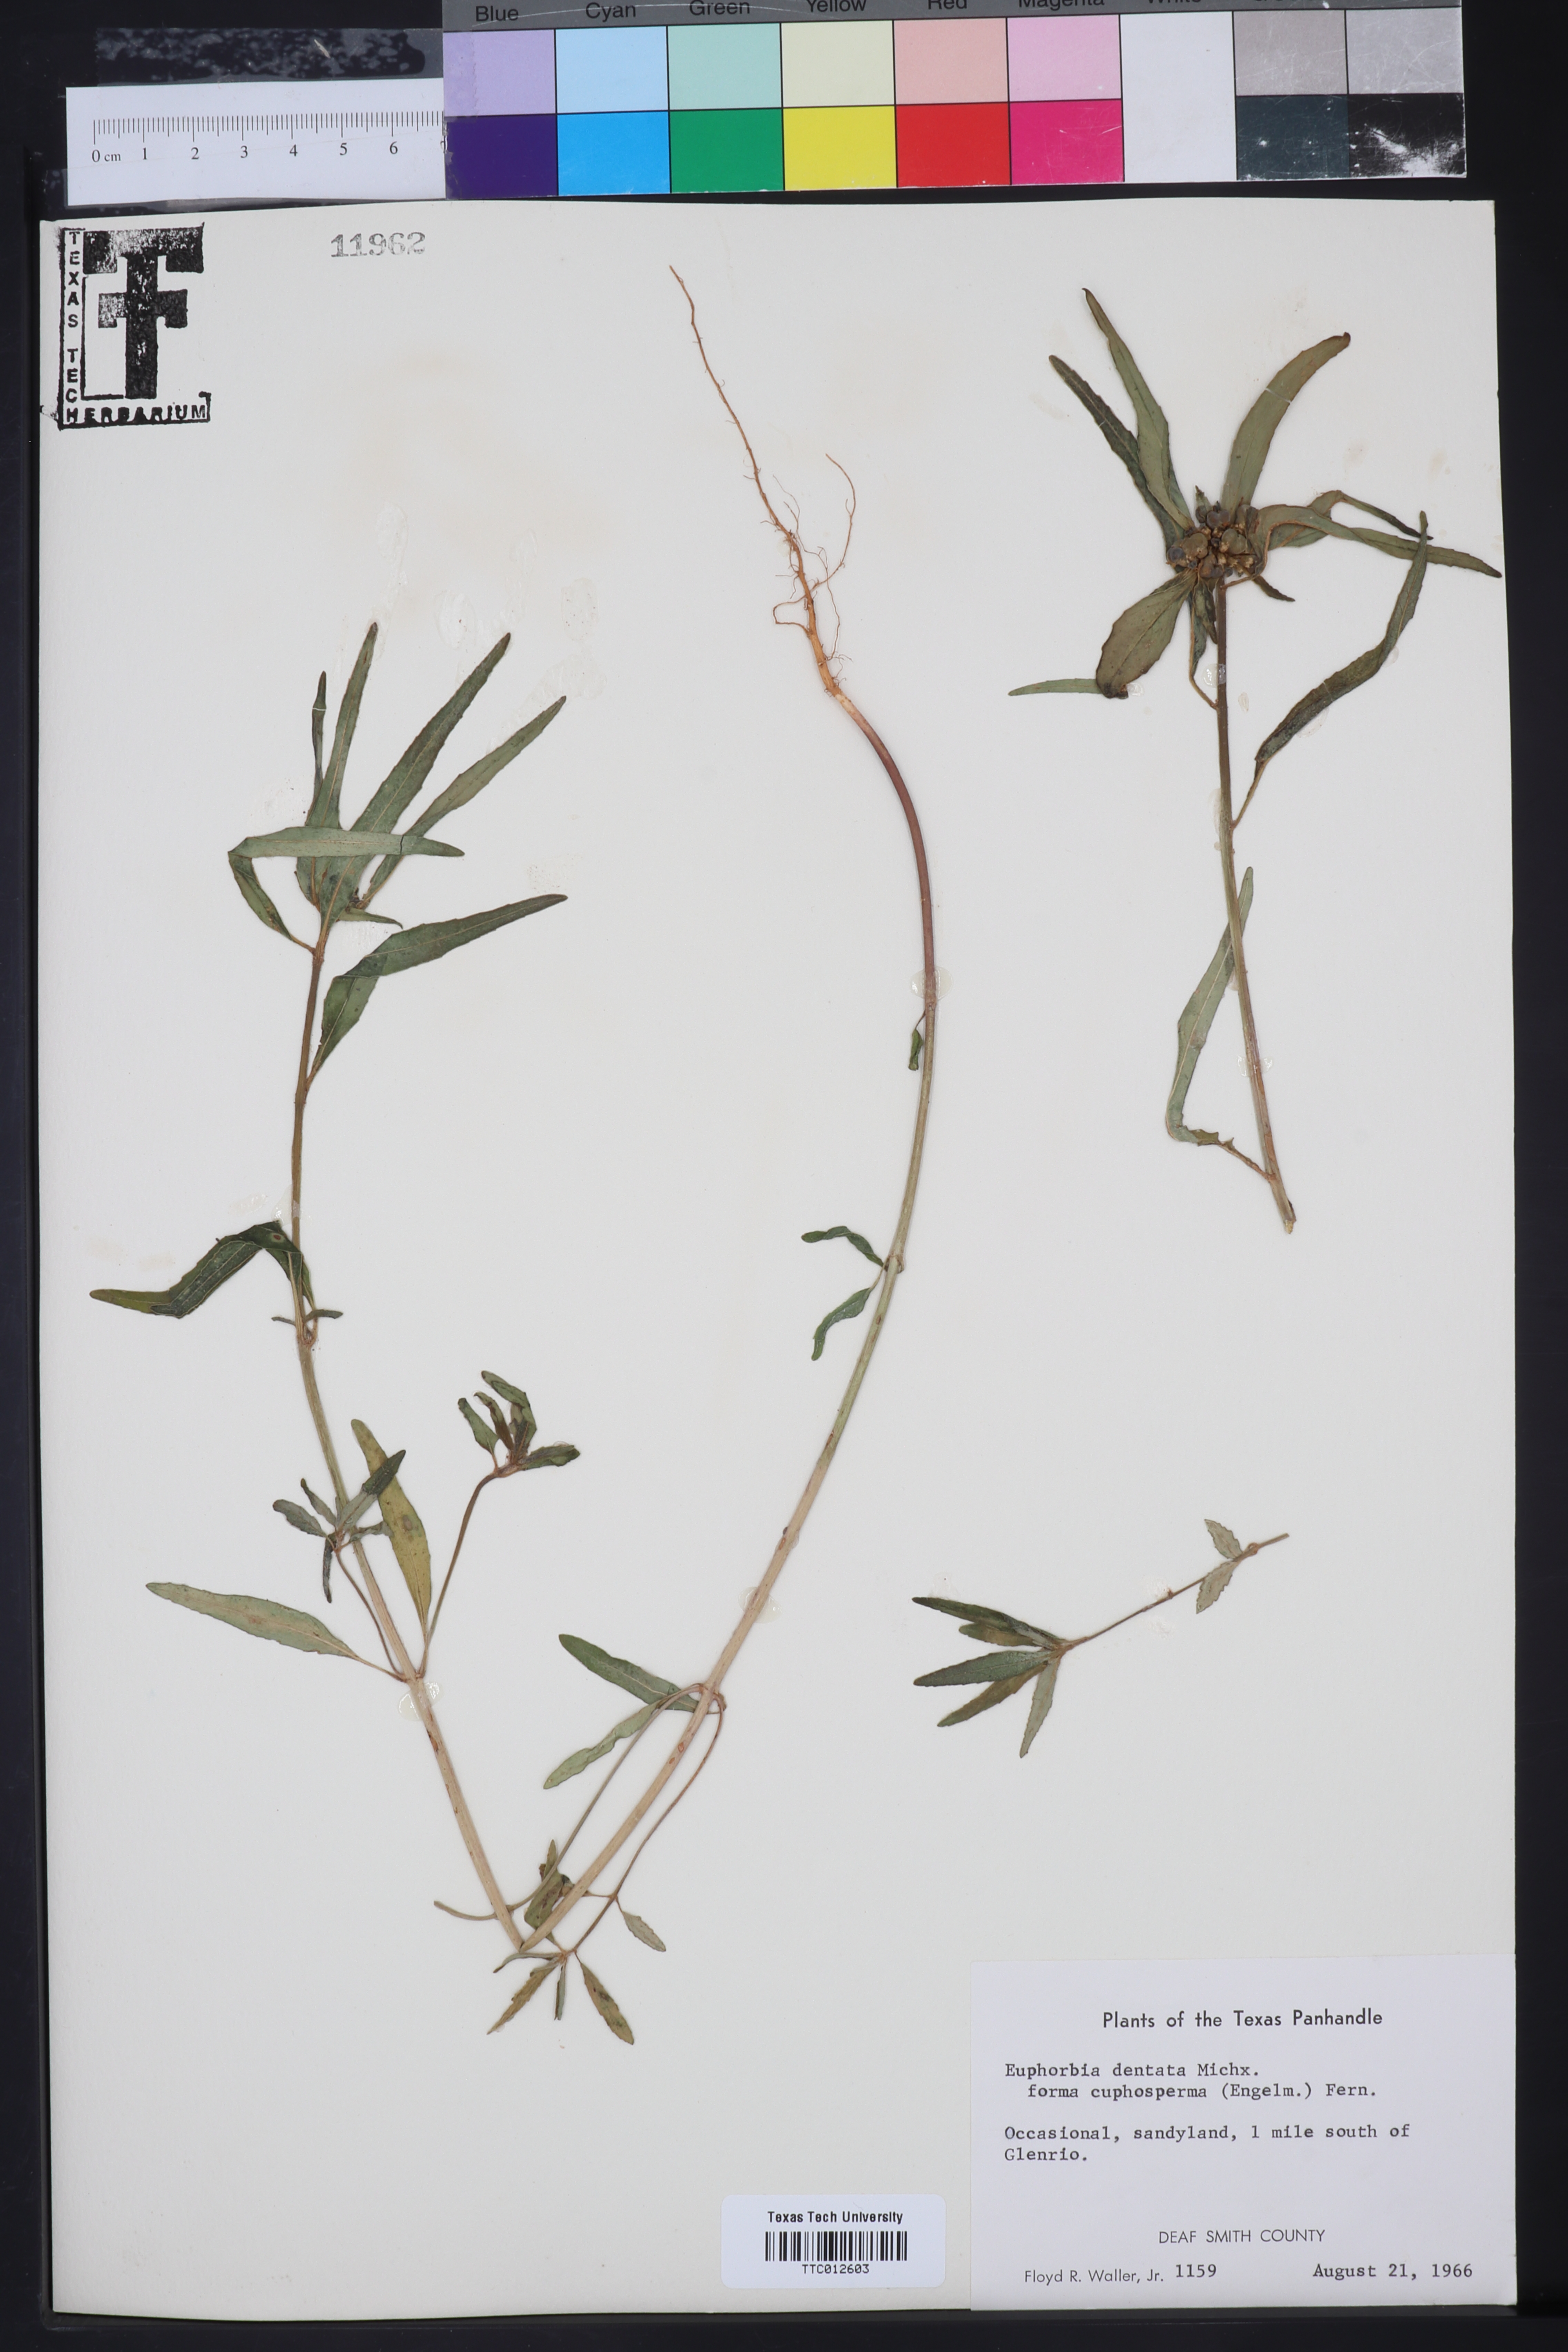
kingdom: Plantae
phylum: Tracheophyta
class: Magnoliopsida
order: Malpighiales
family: Euphorbiaceae
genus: Euphorbia
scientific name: Euphorbia dentata
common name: Dentate spurge
